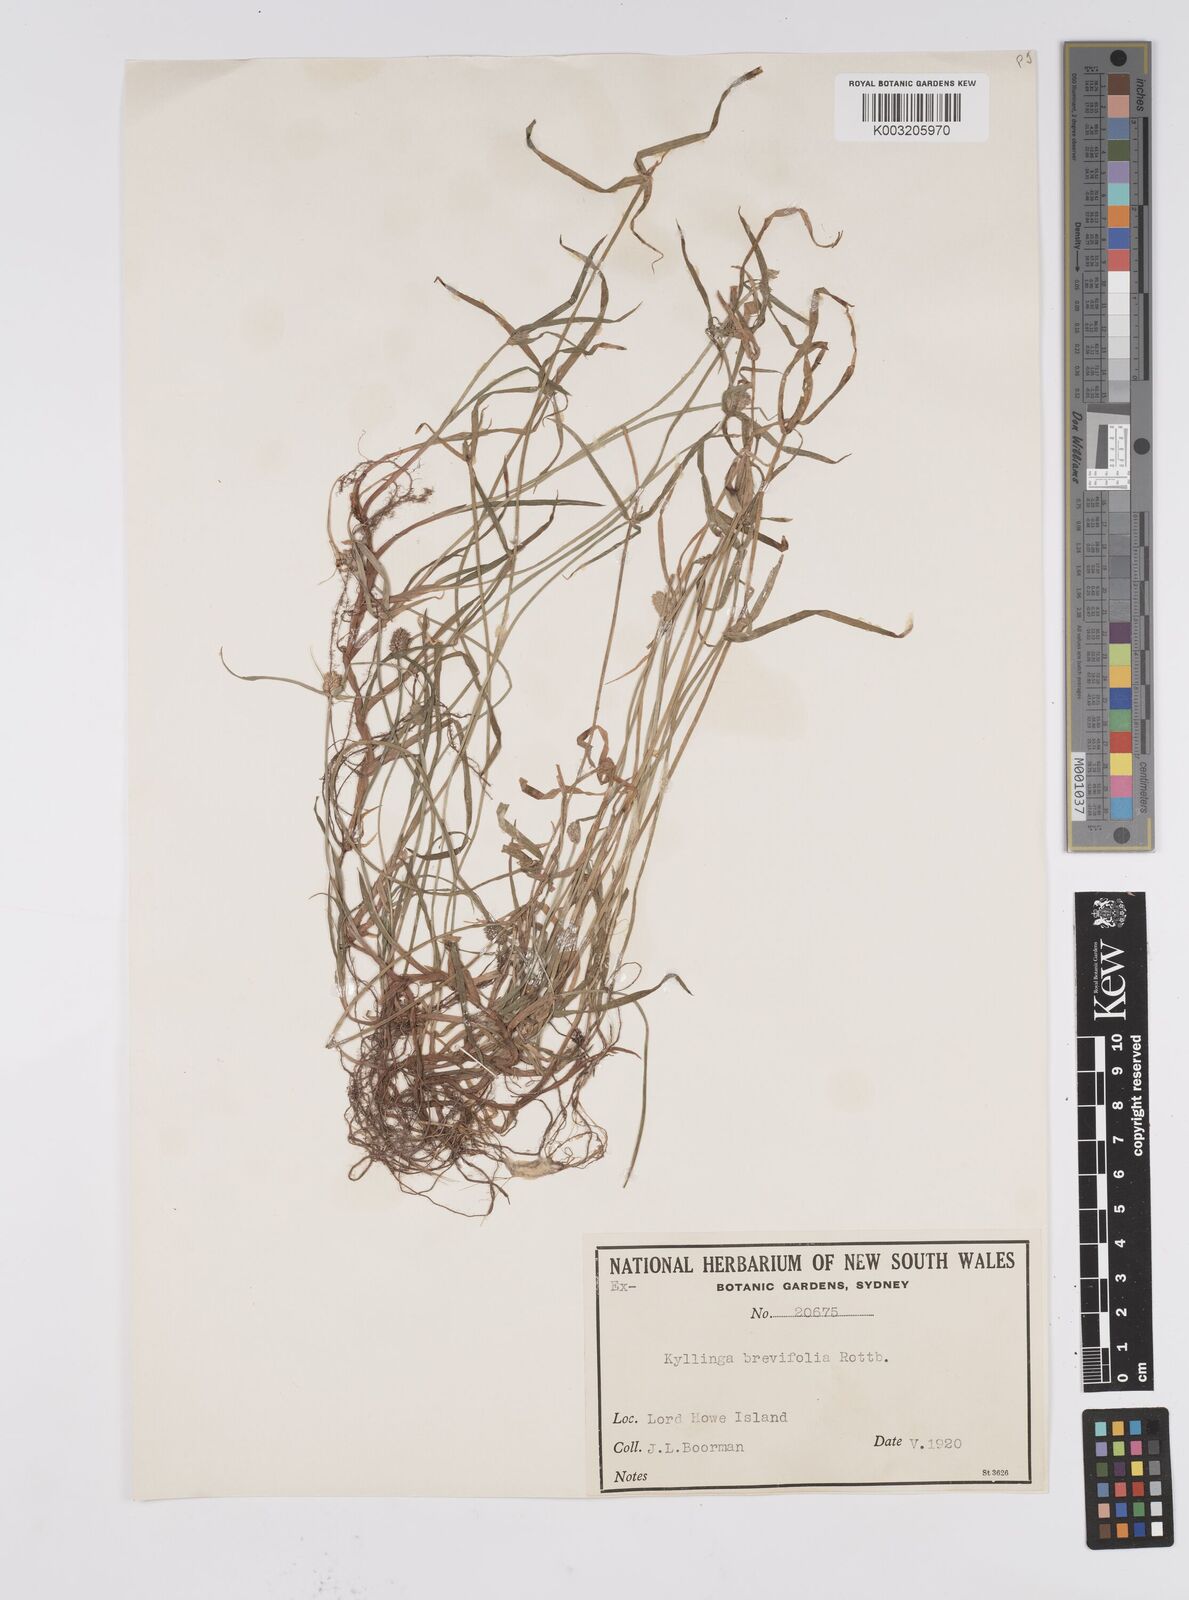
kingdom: Plantae
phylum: Tracheophyta
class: Liliopsida
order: Poales
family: Cyperaceae
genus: Cyperus
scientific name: Cyperus brevifolius
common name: Globe kyllinga
